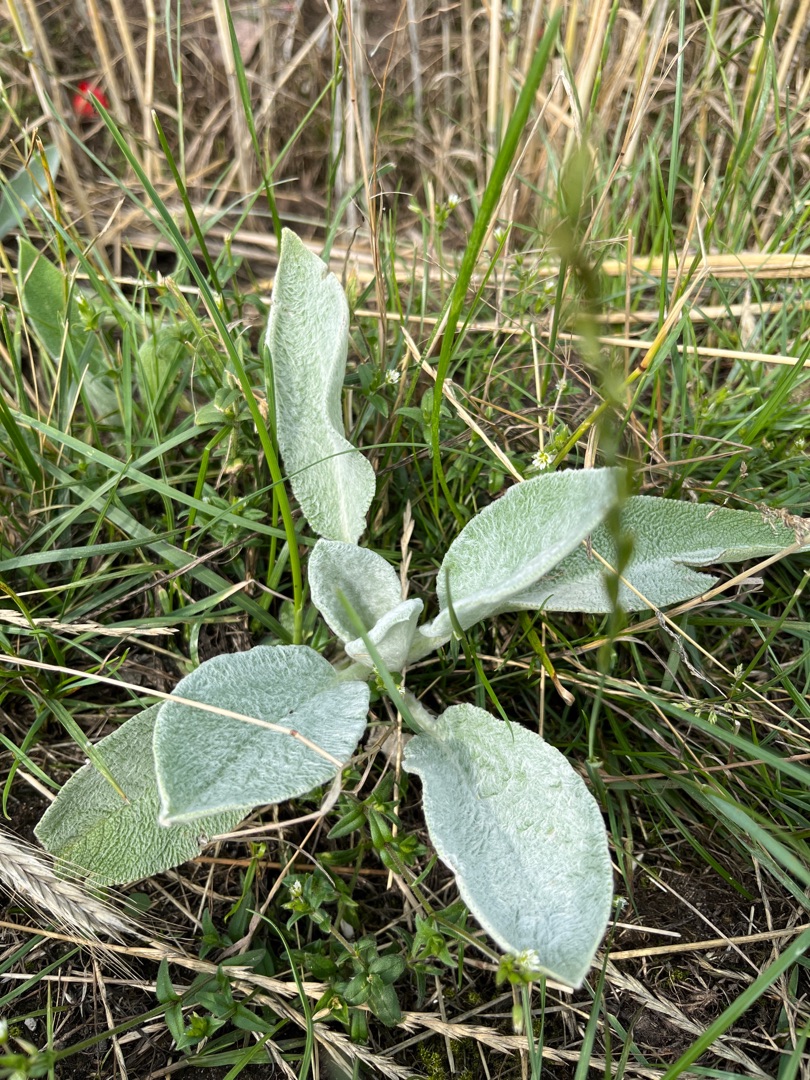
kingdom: Plantae
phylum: Tracheophyta
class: Magnoliopsida
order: Lamiales
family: Lamiaceae
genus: Stachys
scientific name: Stachys byzantina
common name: Lammeøre
